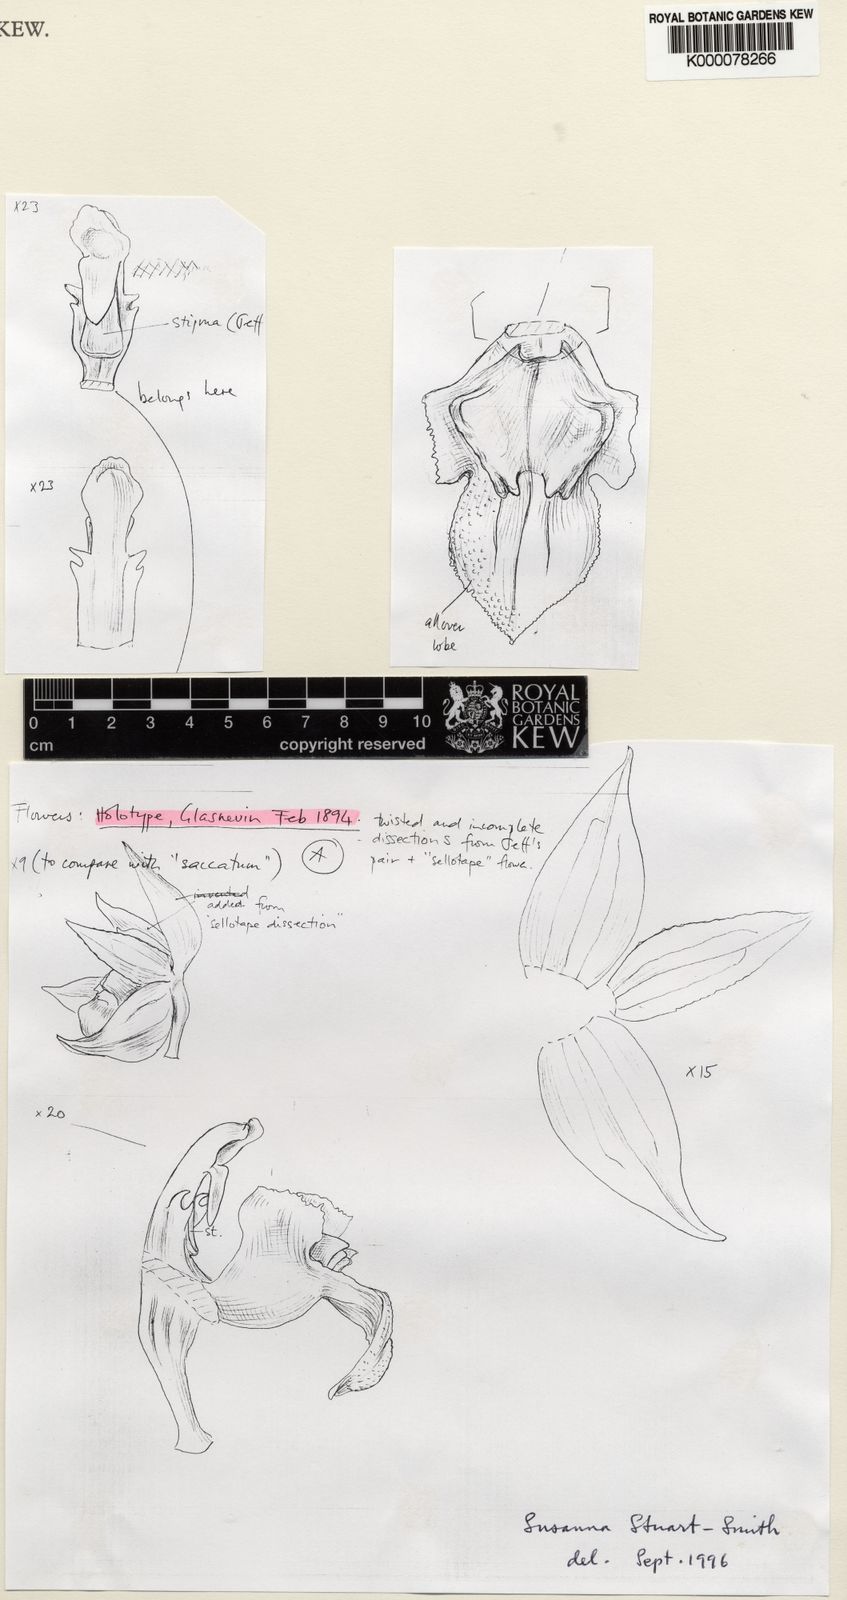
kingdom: Plantae
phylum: Tracheophyta
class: Liliopsida
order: Asparagales
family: Orchidaceae
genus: Coelogyne
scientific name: Coelogyne rufa
